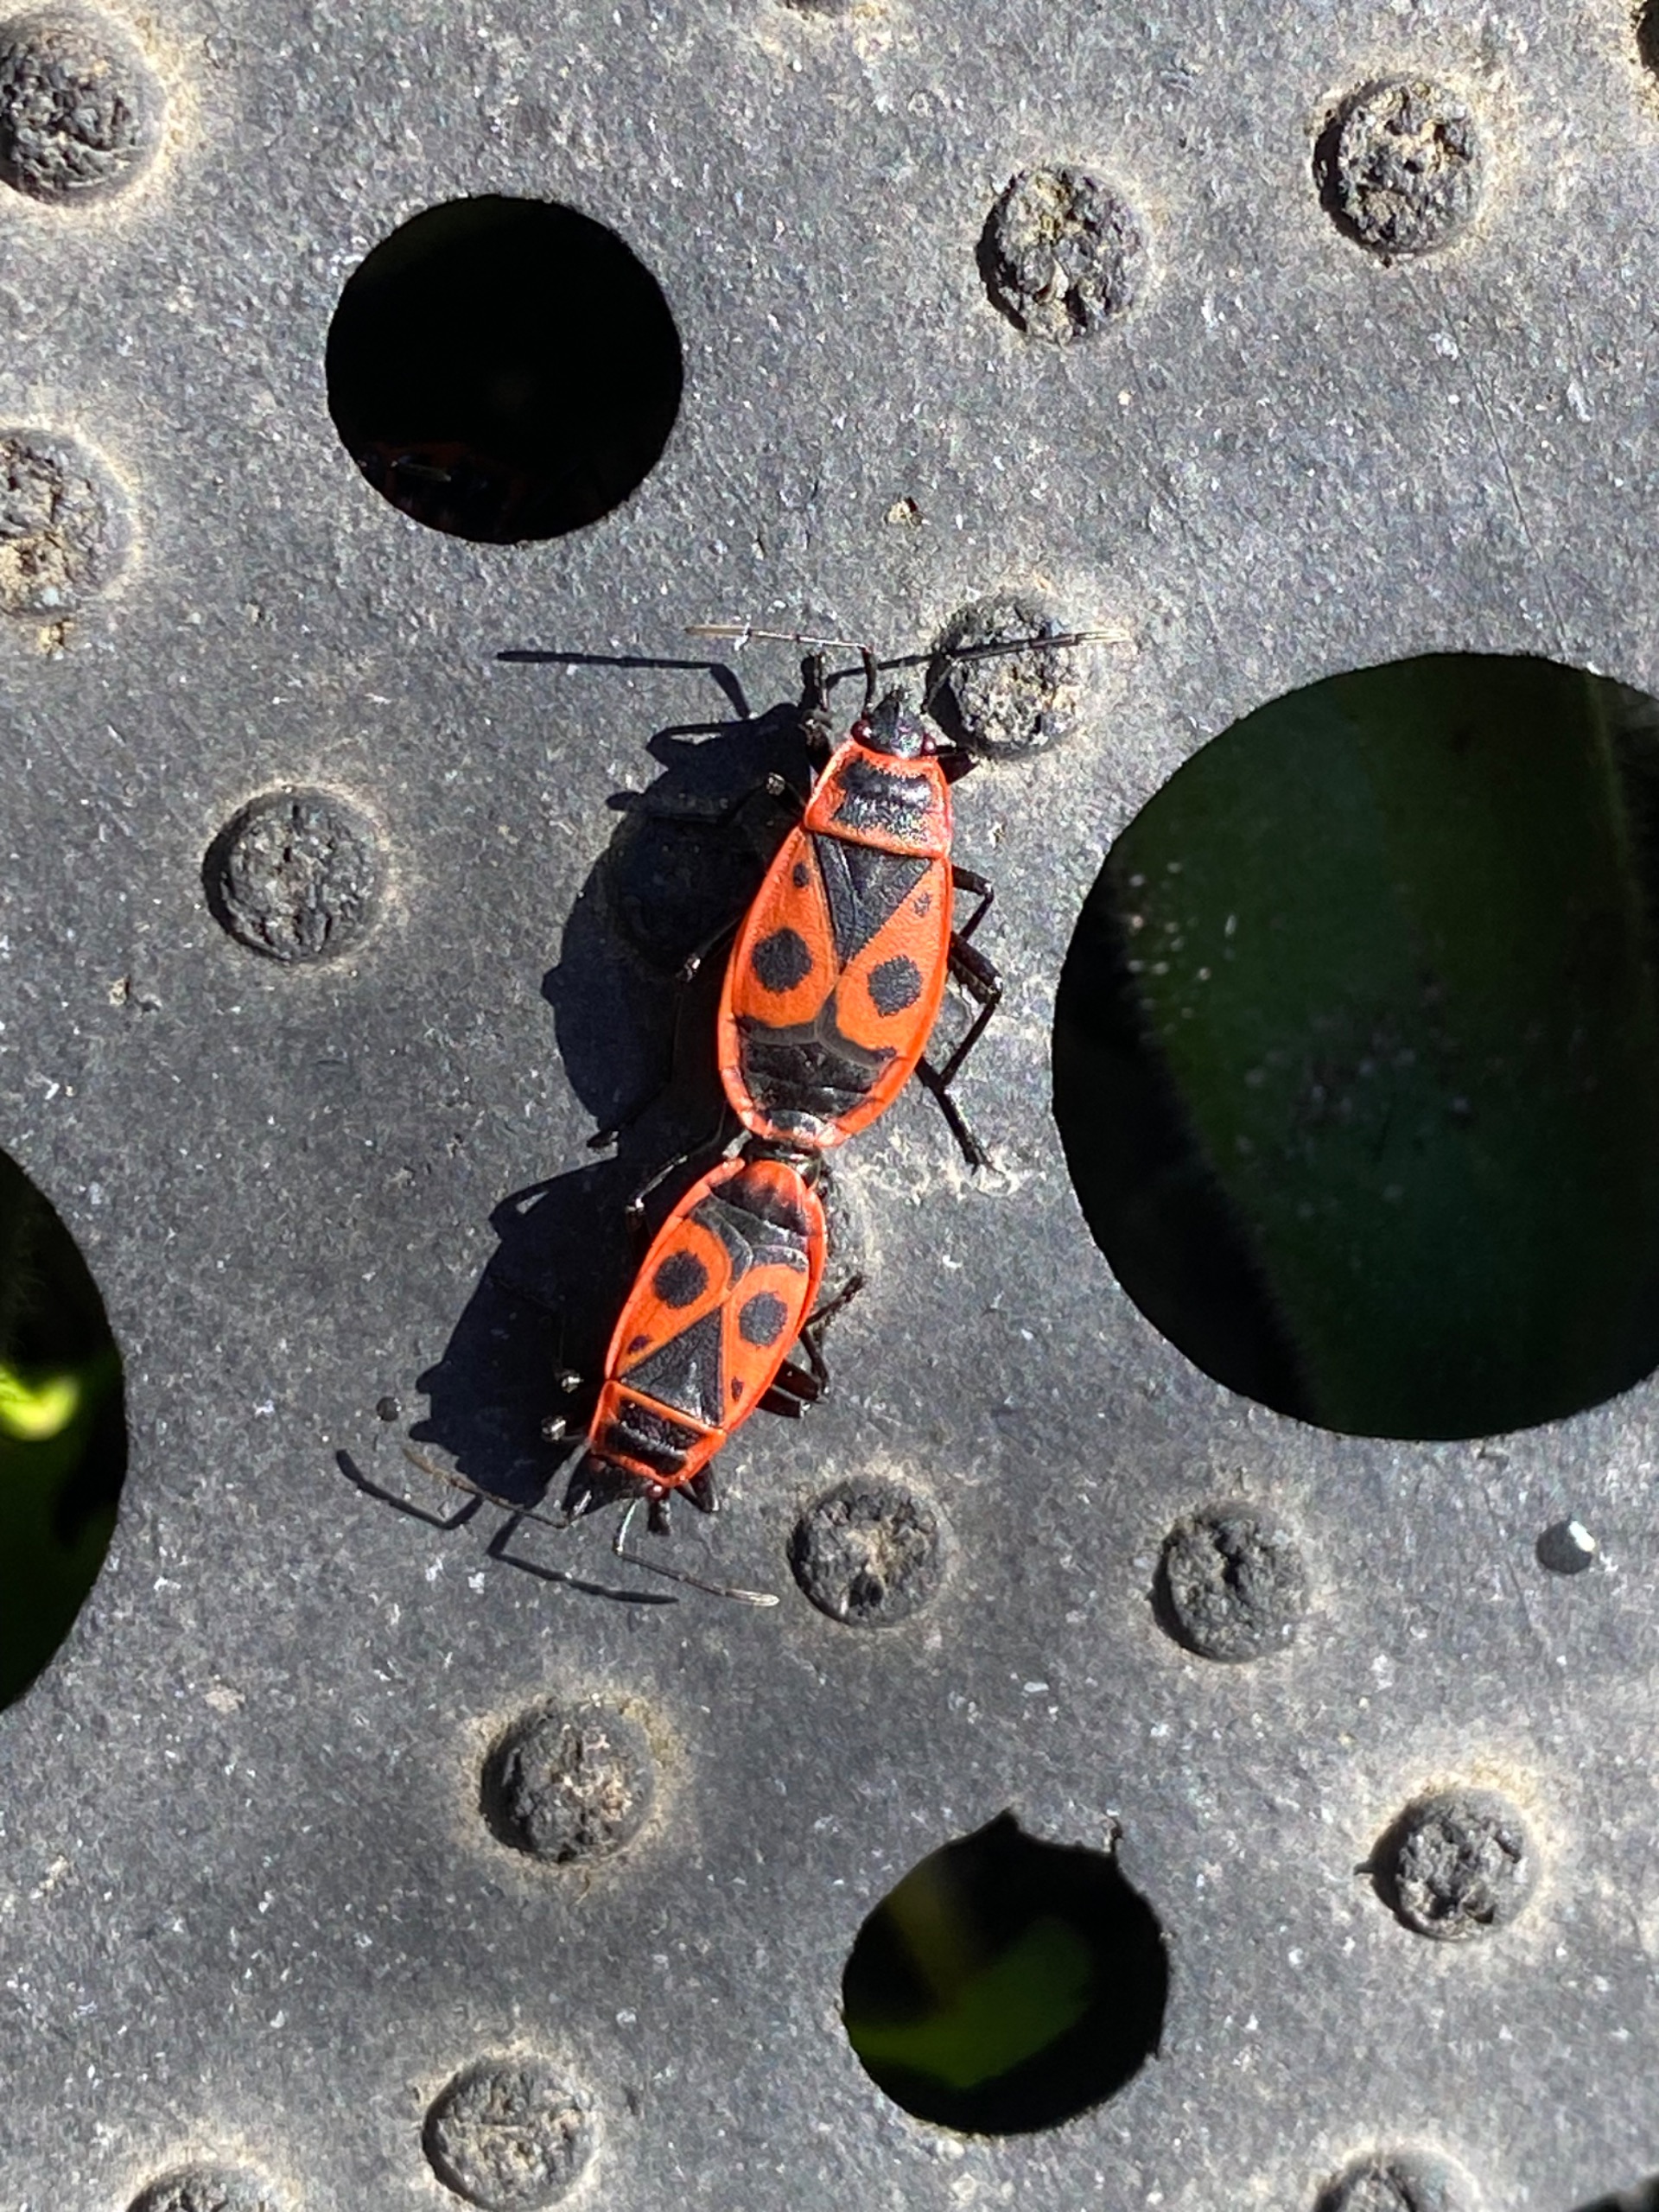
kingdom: Animalia
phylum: Arthropoda
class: Insecta
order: Hemiptera
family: Pyrrhocoridae
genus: Pyrrhocoris
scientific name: Pyrrhocoris apterus
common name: Ildtæge
